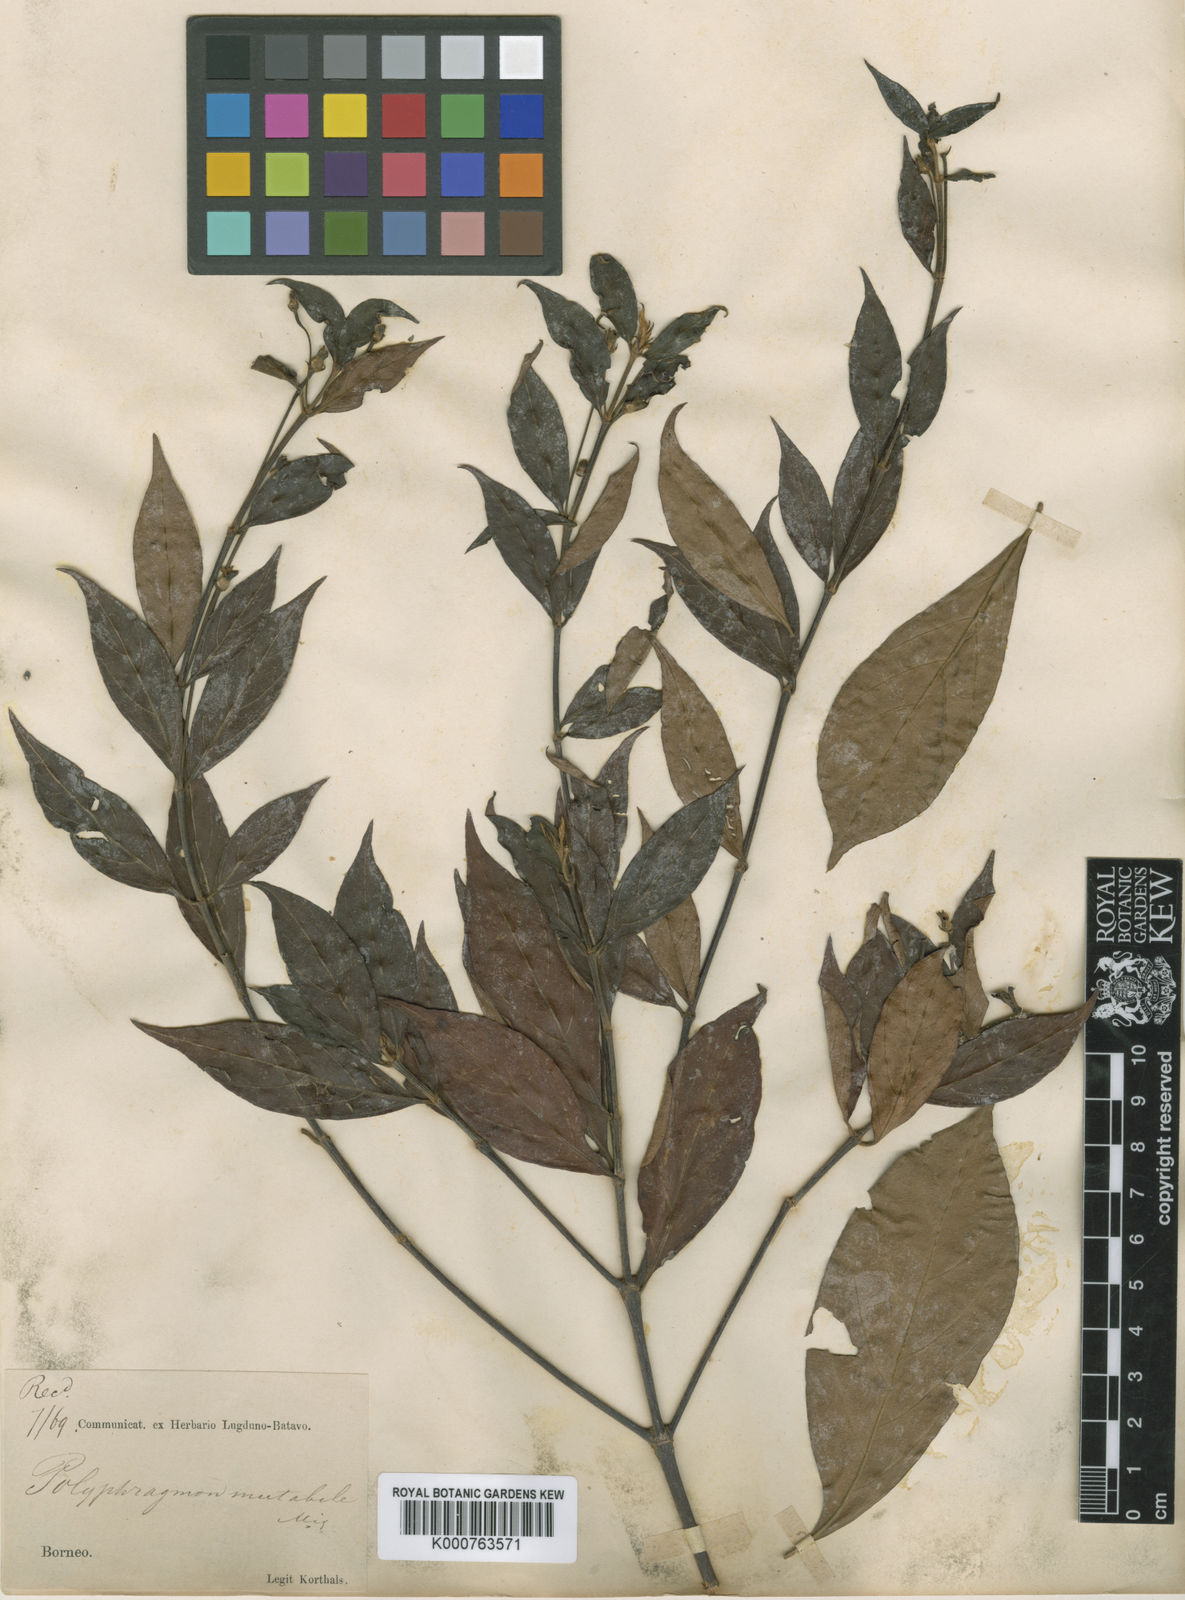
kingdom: Plantae
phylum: Tracheophyta
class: Magnoliopsida
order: Gentianales
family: Rubiaceae
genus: Timonius
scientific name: Timonius flavescens
